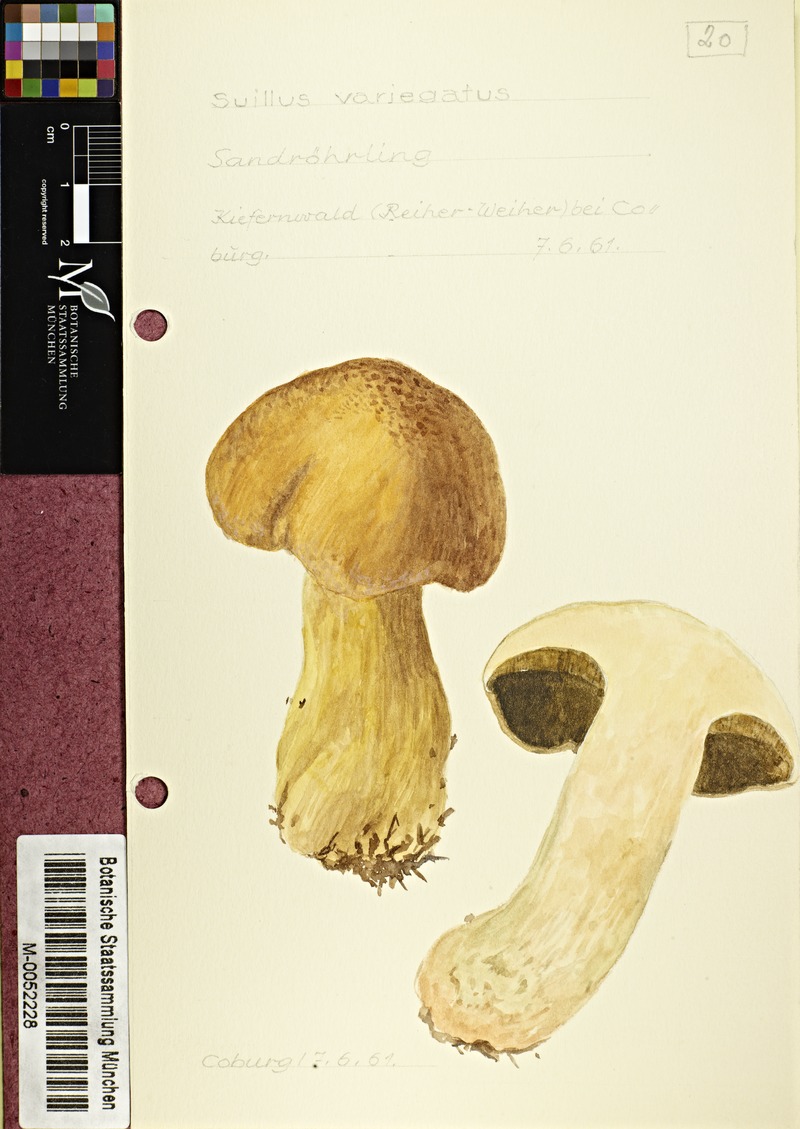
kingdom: Fungi
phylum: Basidiomycota
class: Agaricomycetes
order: Boletales
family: Suillaceae
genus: Suillus
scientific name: Suillus variegatus
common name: Velvet bolete
